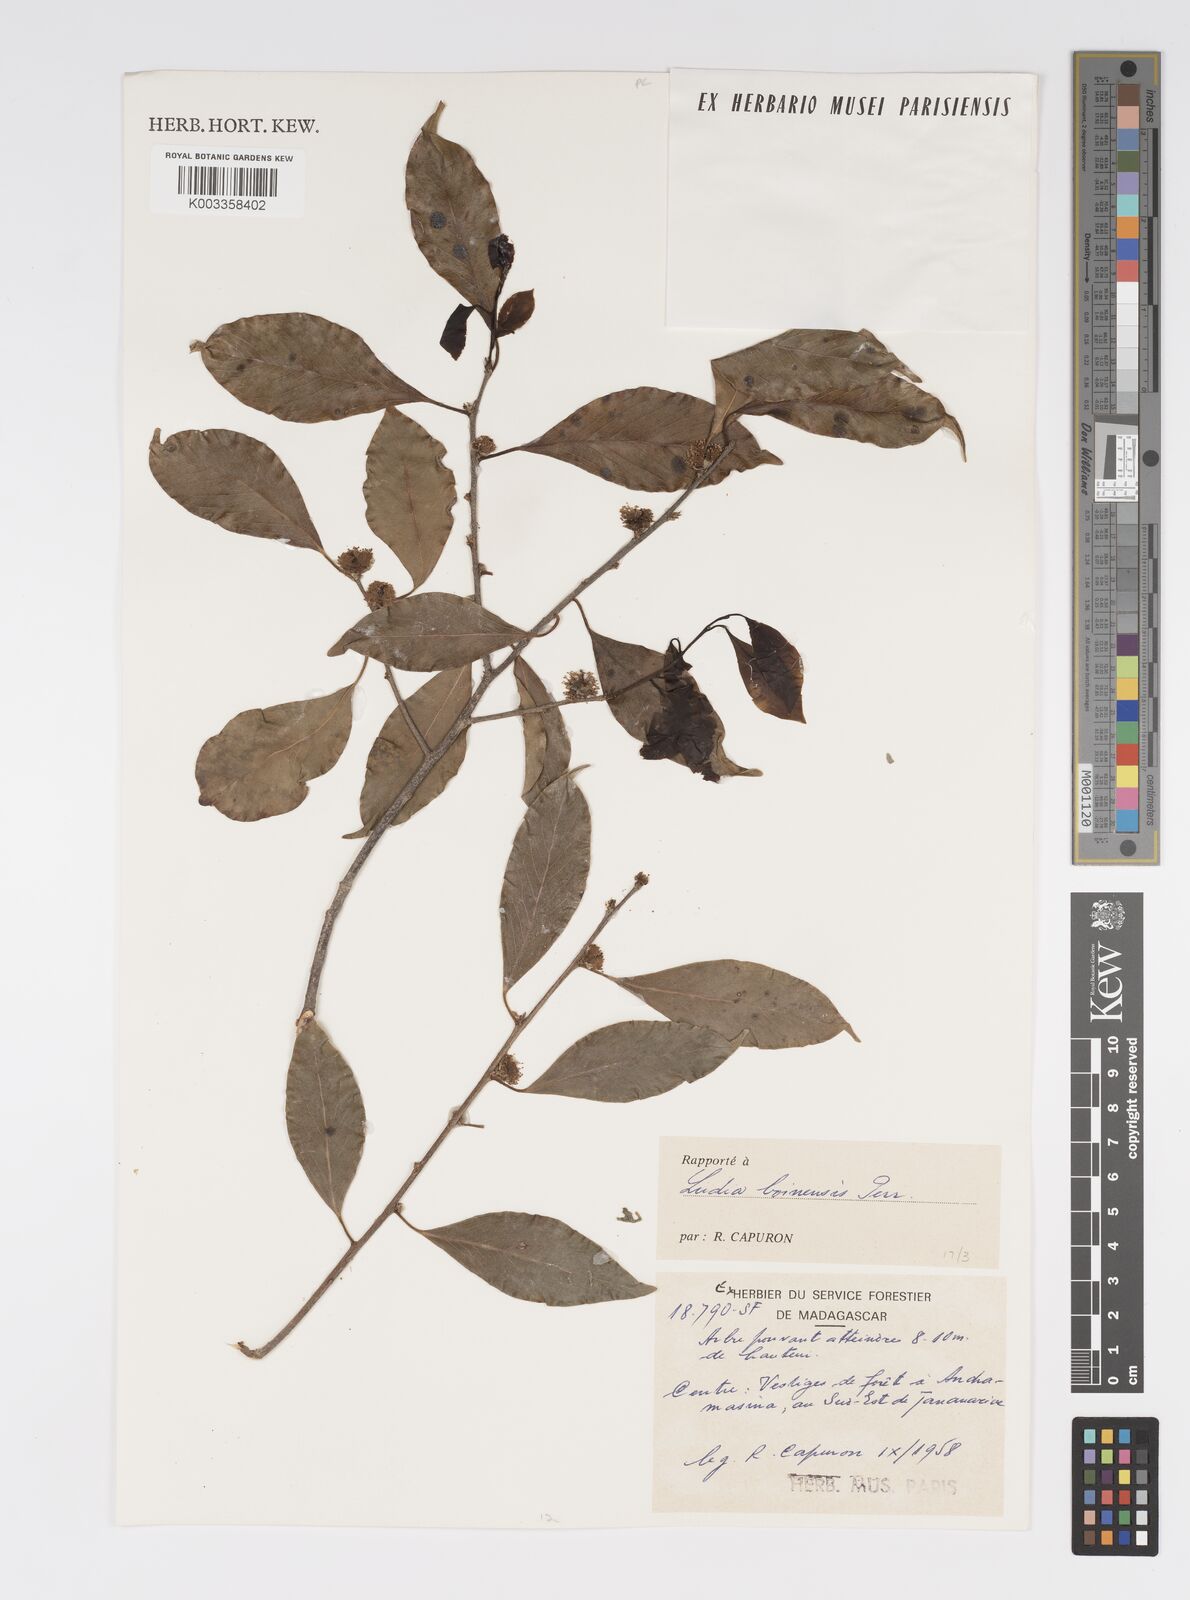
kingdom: Plantae
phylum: Tracheophyta
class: Magnoliopsida
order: Malpighiales
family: Salicaceae
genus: Ludia
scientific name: Ludia boinensis
